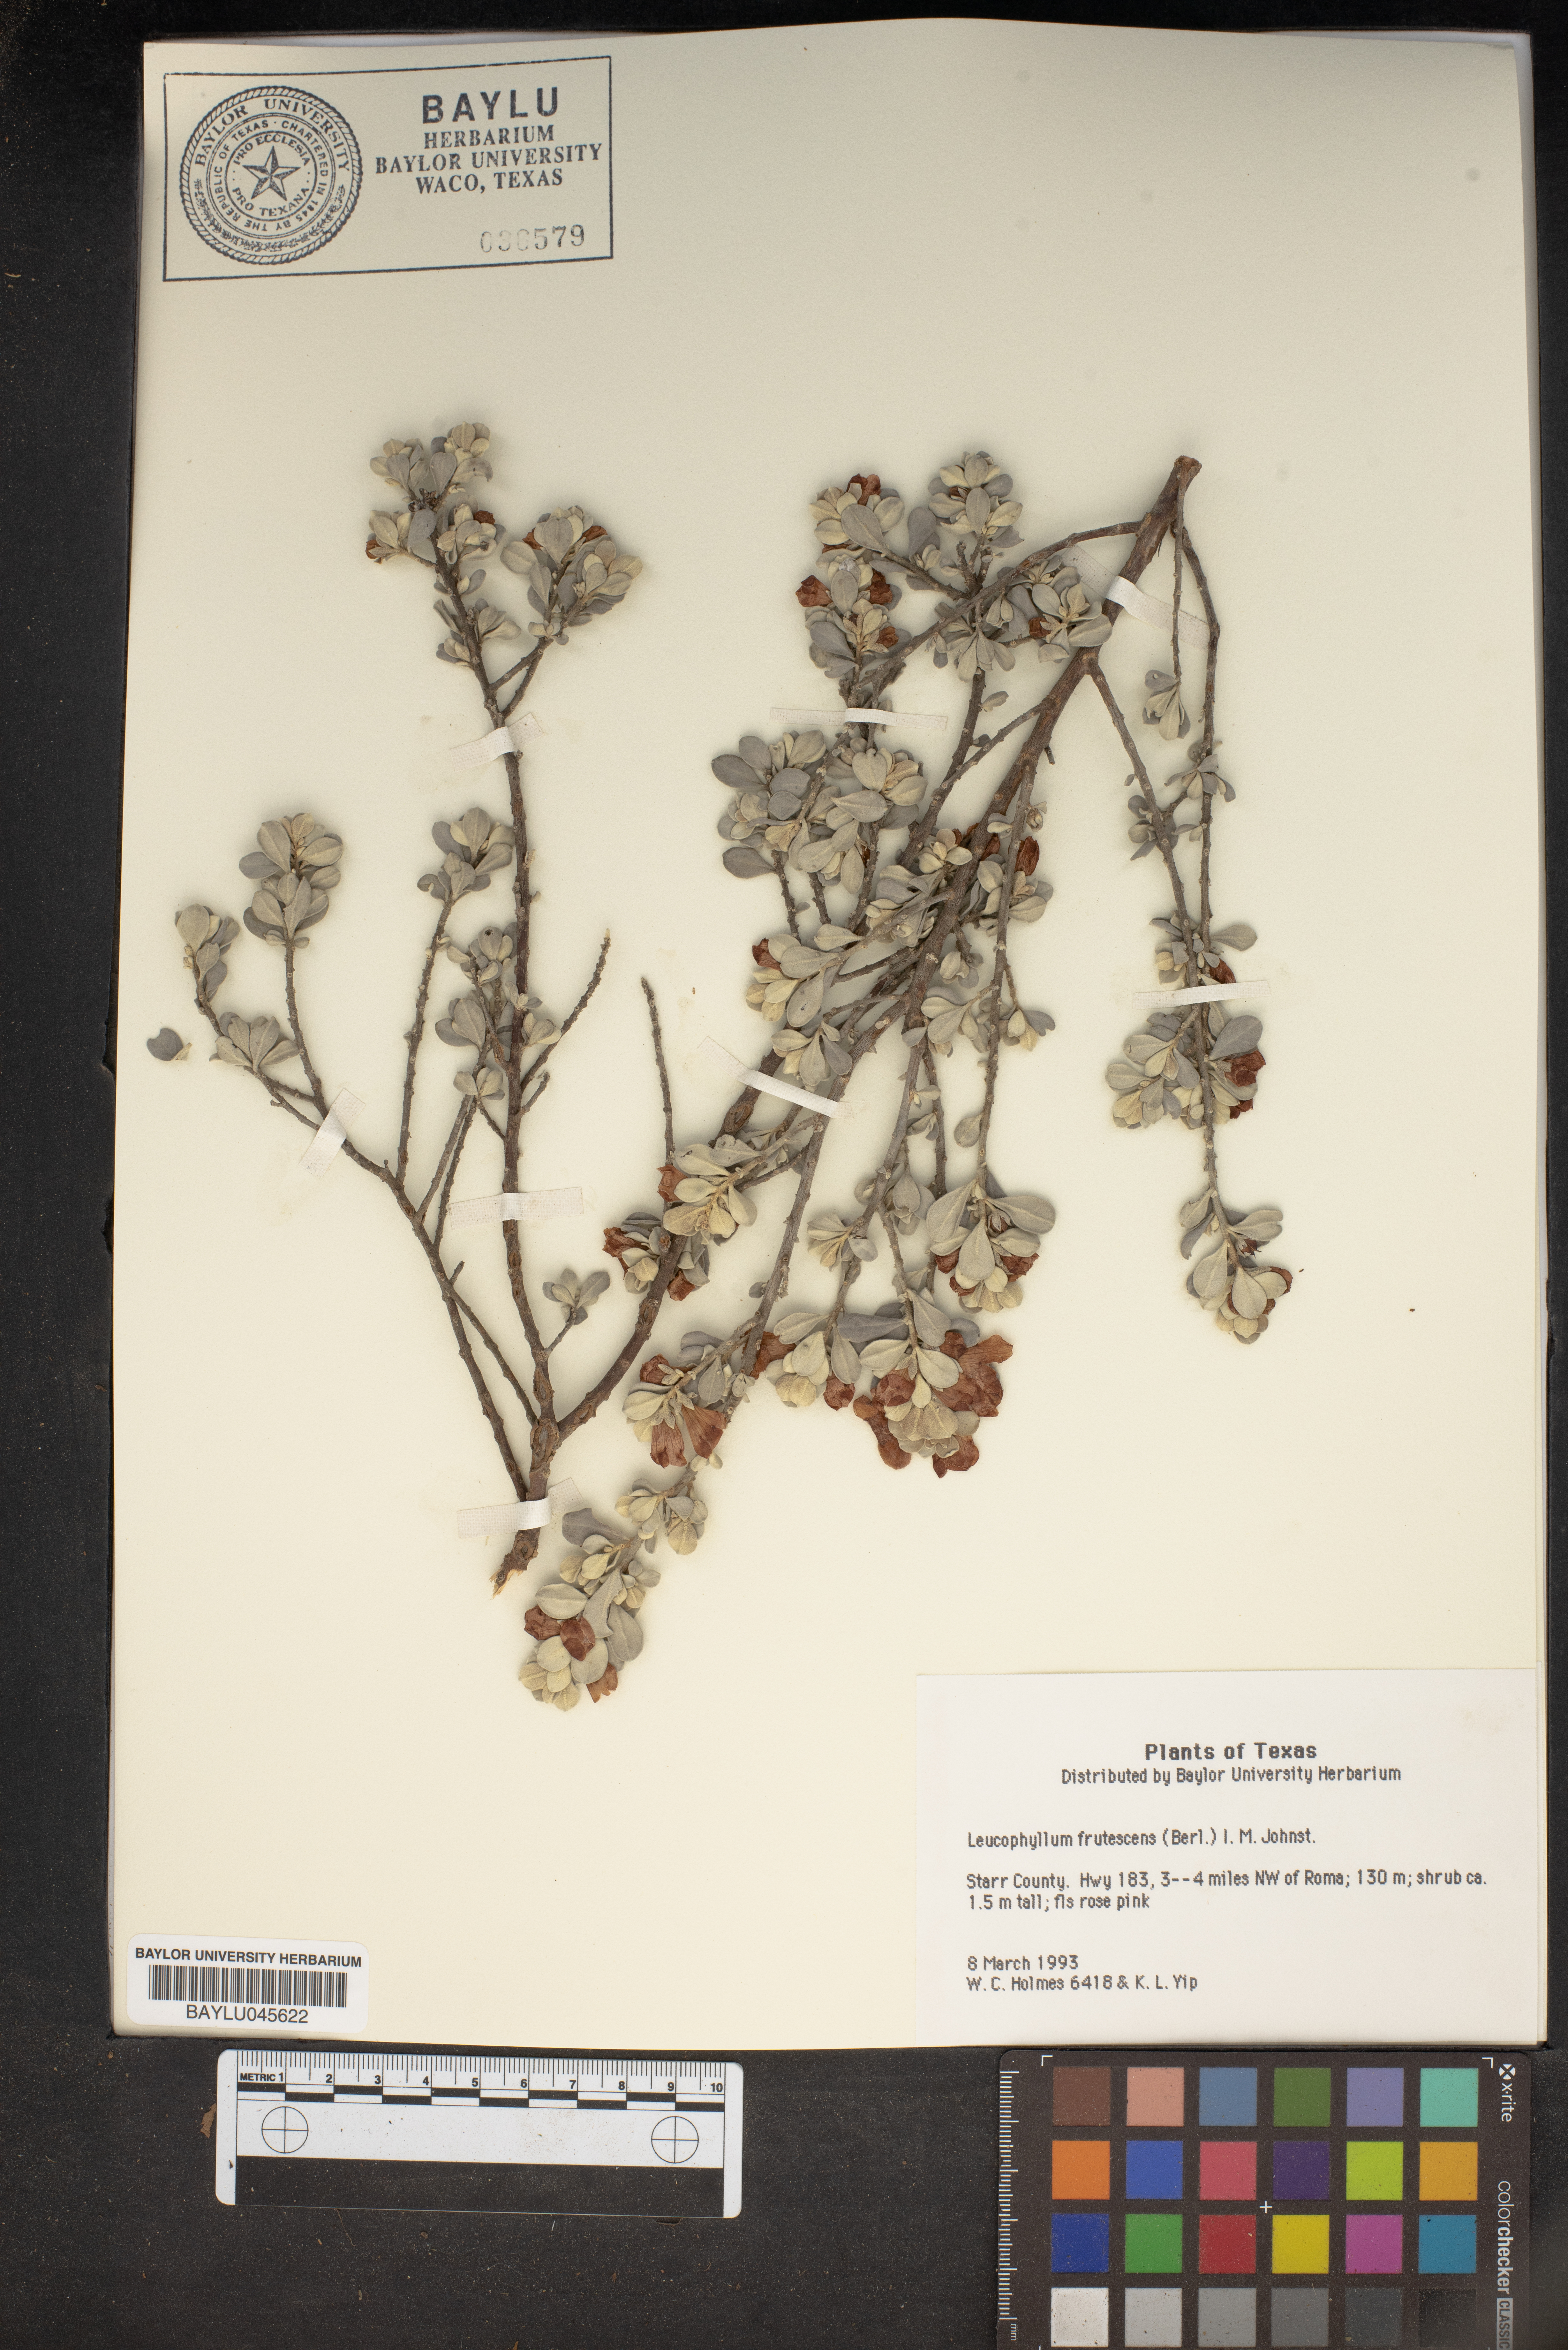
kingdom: Plantae
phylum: Tracheophyta
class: Magnoliopsida
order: Lamiales
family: Scrophulariaceae
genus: Leucophyllum
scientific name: Leucophyllum frutescens
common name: Texas silverleaf
